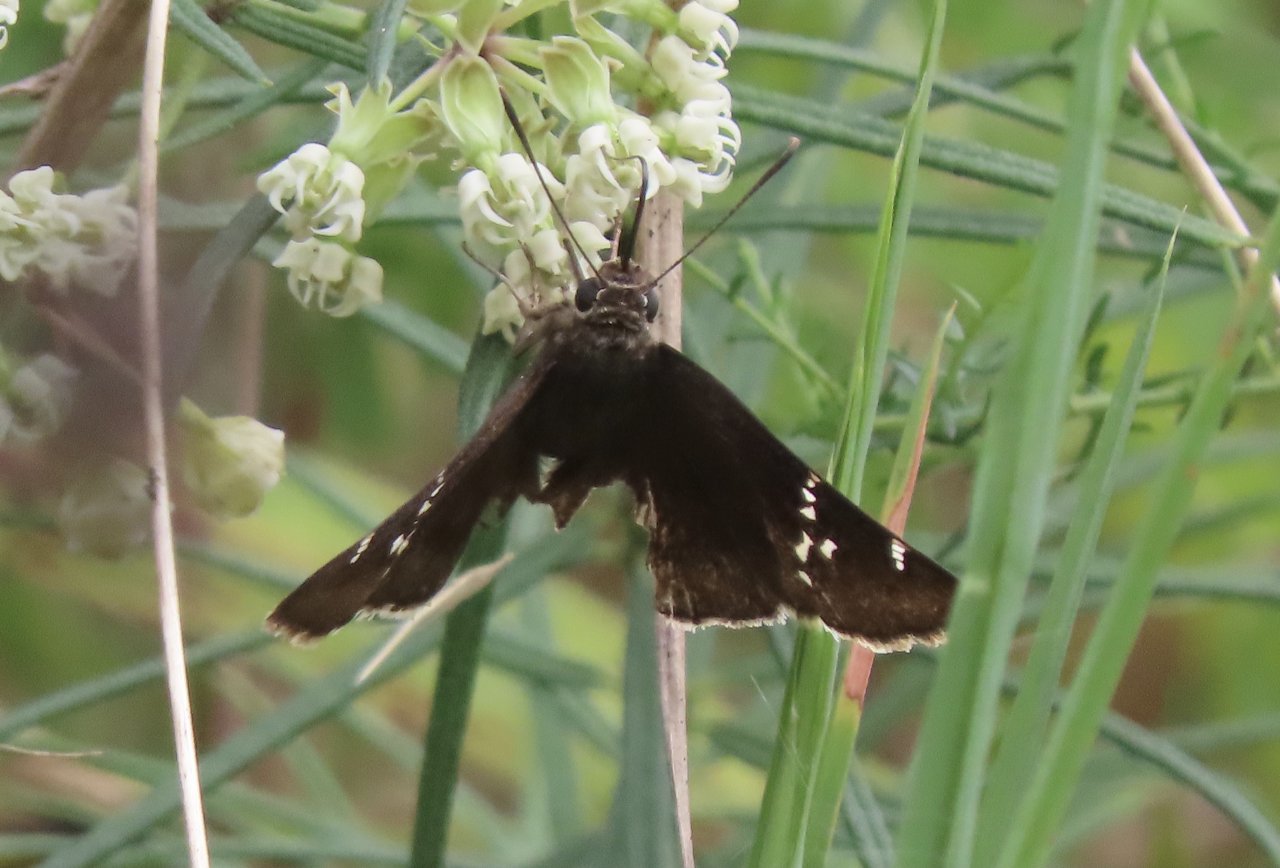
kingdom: Animalia
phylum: Arthropoda
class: Insecta
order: Lepidoptera
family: Hesperiidae
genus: Autochton
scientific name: Autochton
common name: Southern Cloudywing
